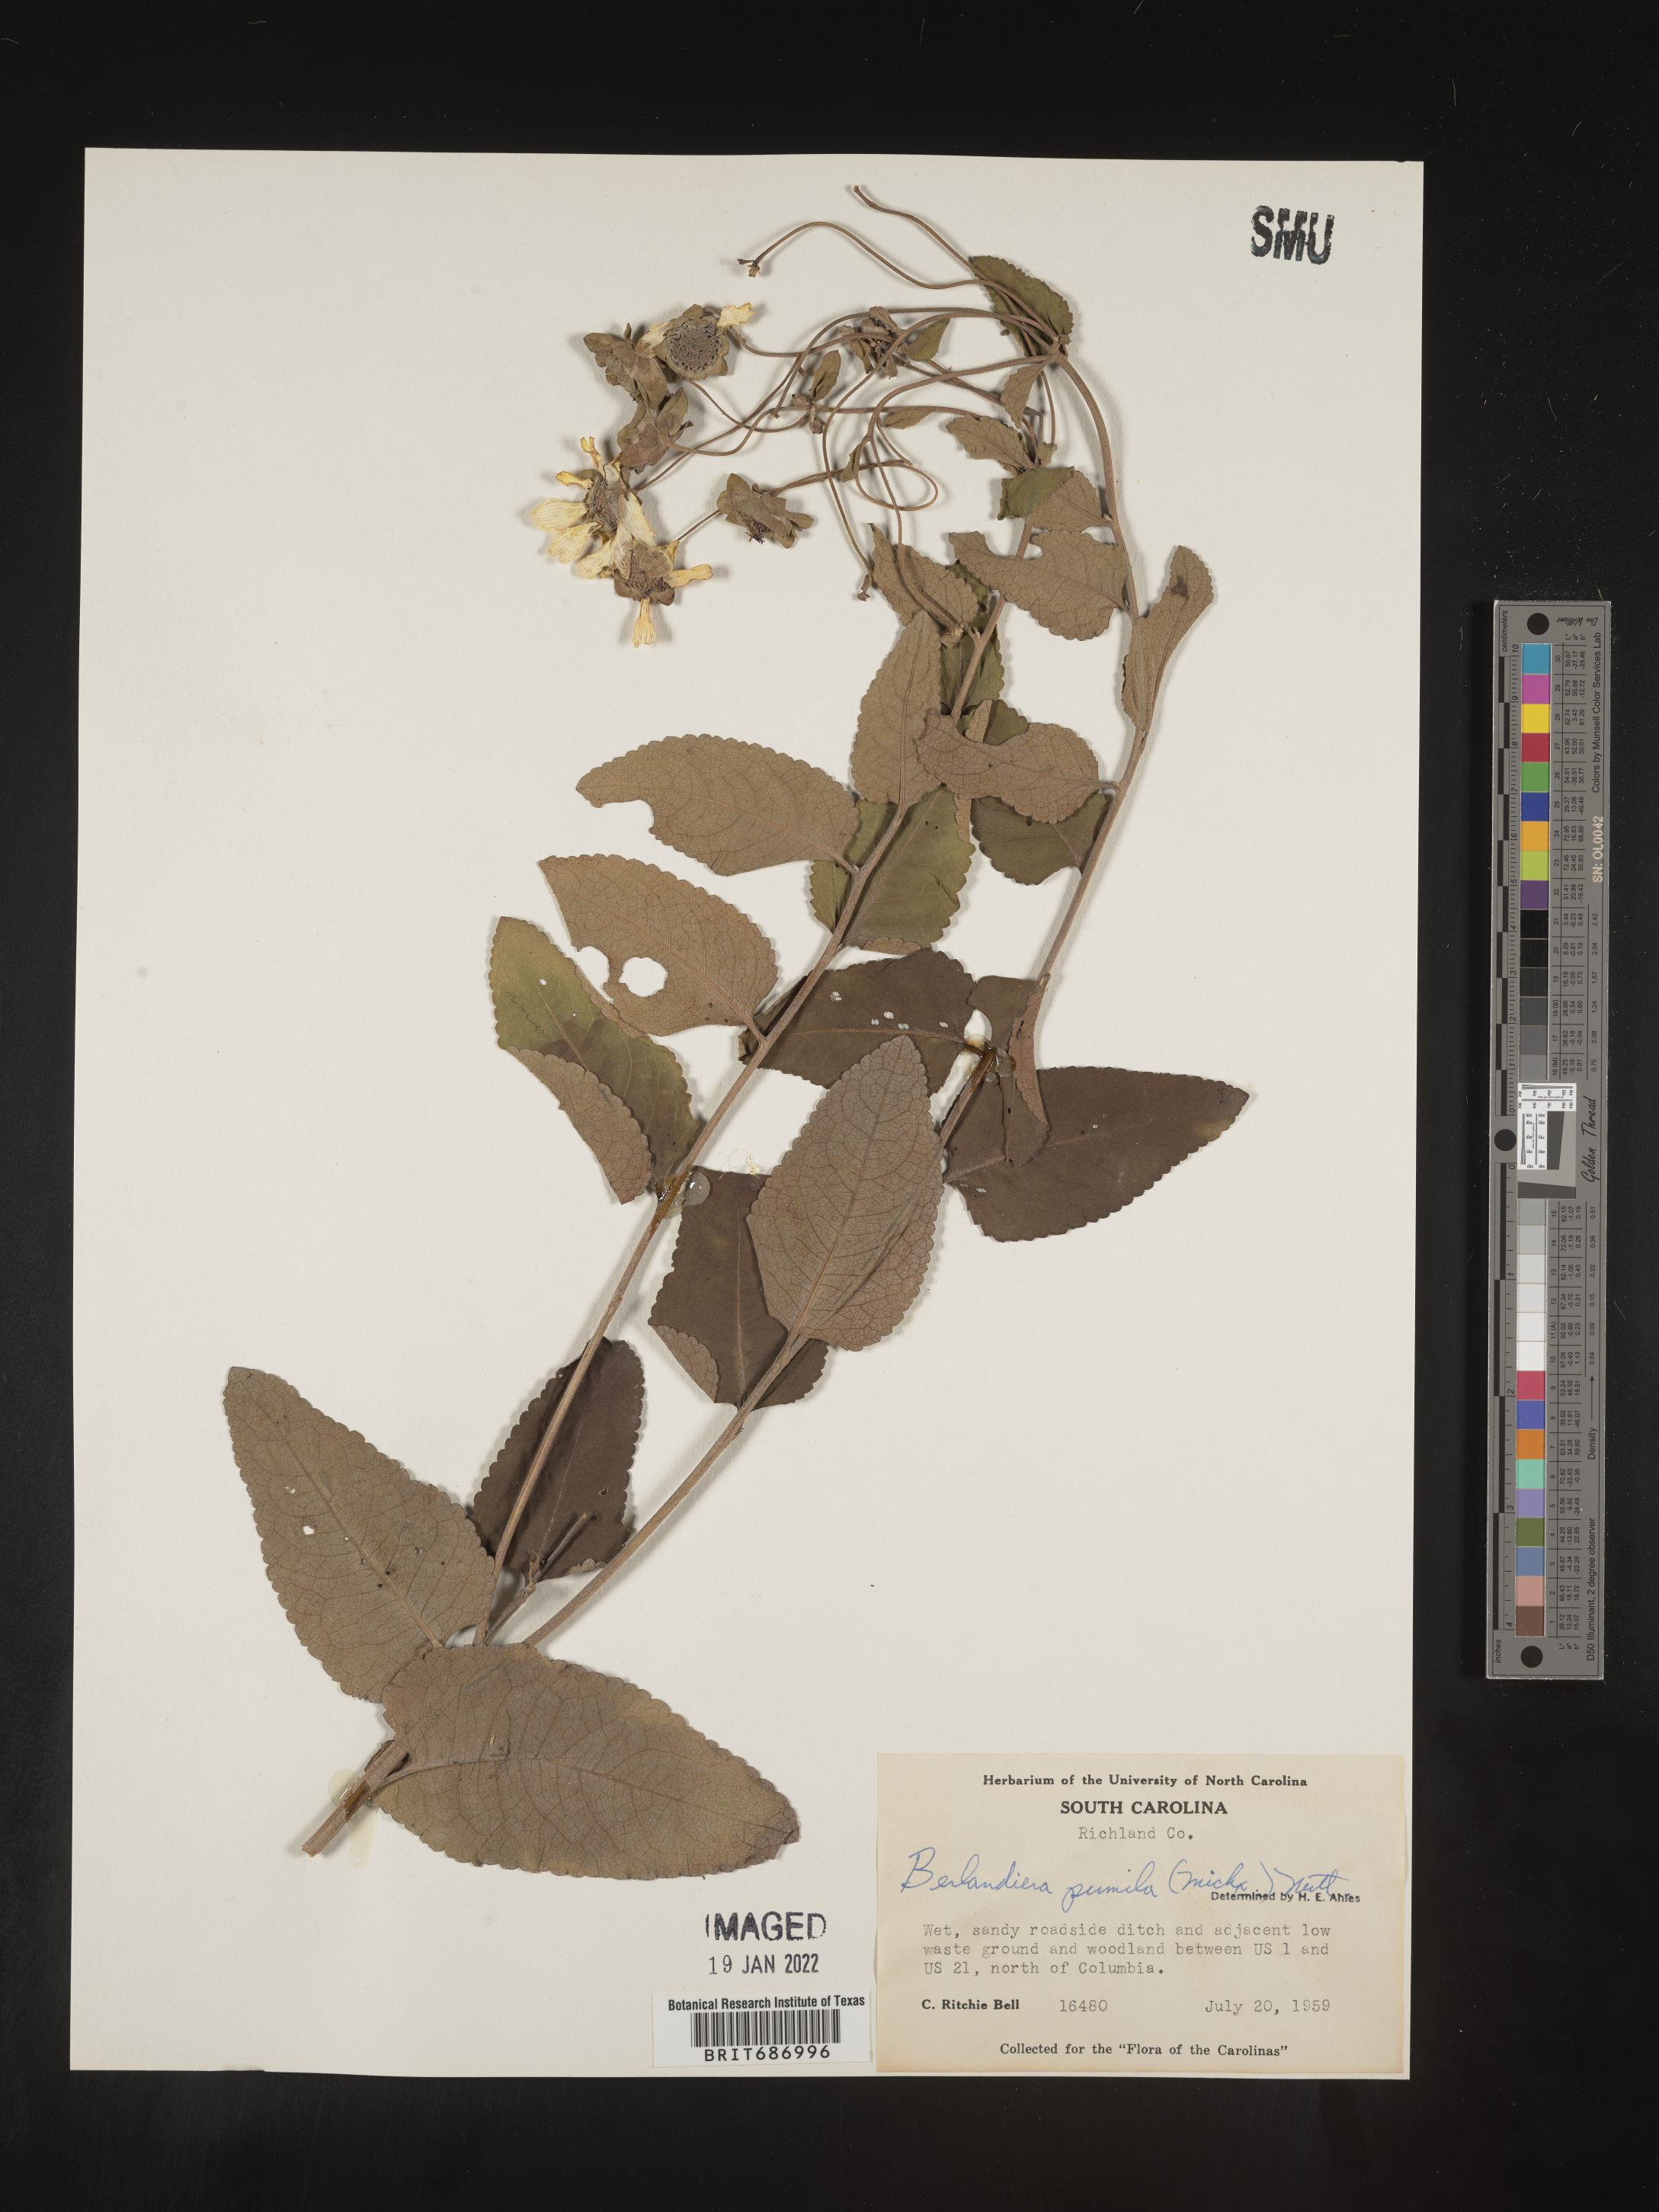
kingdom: Plantae
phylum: Tracheophyta
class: Magnoliopsida
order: Asterales
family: Asteraceae
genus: Berlandiera
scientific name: Berlandiera pumila
